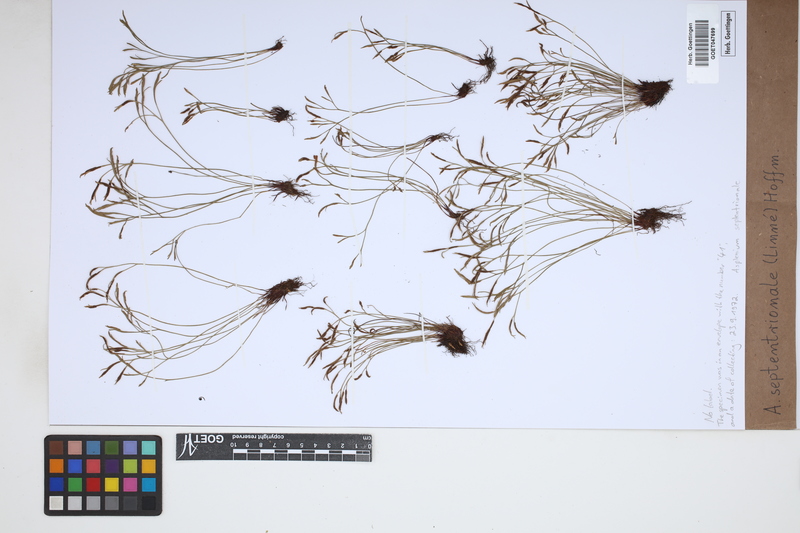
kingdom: Plantae
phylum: Tracheophyta
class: Polypodiopsida
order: Polypodiales
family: Aspleniaceae
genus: Asplenium
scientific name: Asplenium septentrionale
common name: Forked spleenwort
